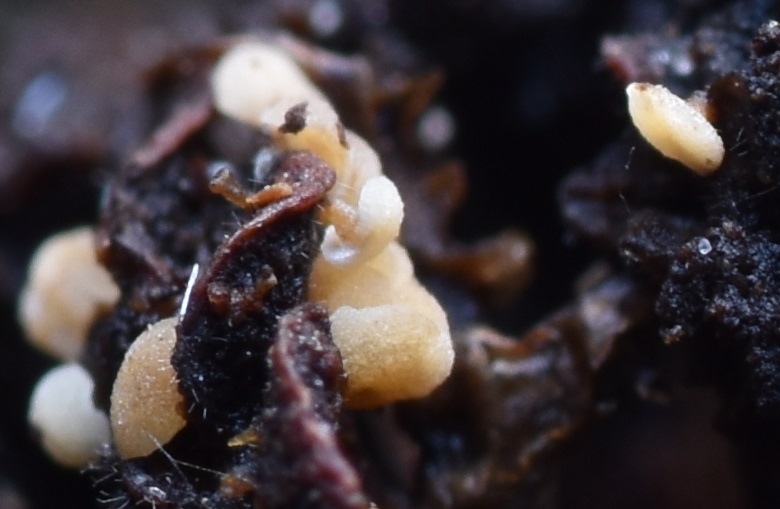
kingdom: Fungi
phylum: Ascomycota
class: Leotiomycetes
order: Helotiales
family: Pezizellaceae
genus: Calycina
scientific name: Calycina alniella
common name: ellekogle-stilkskive
